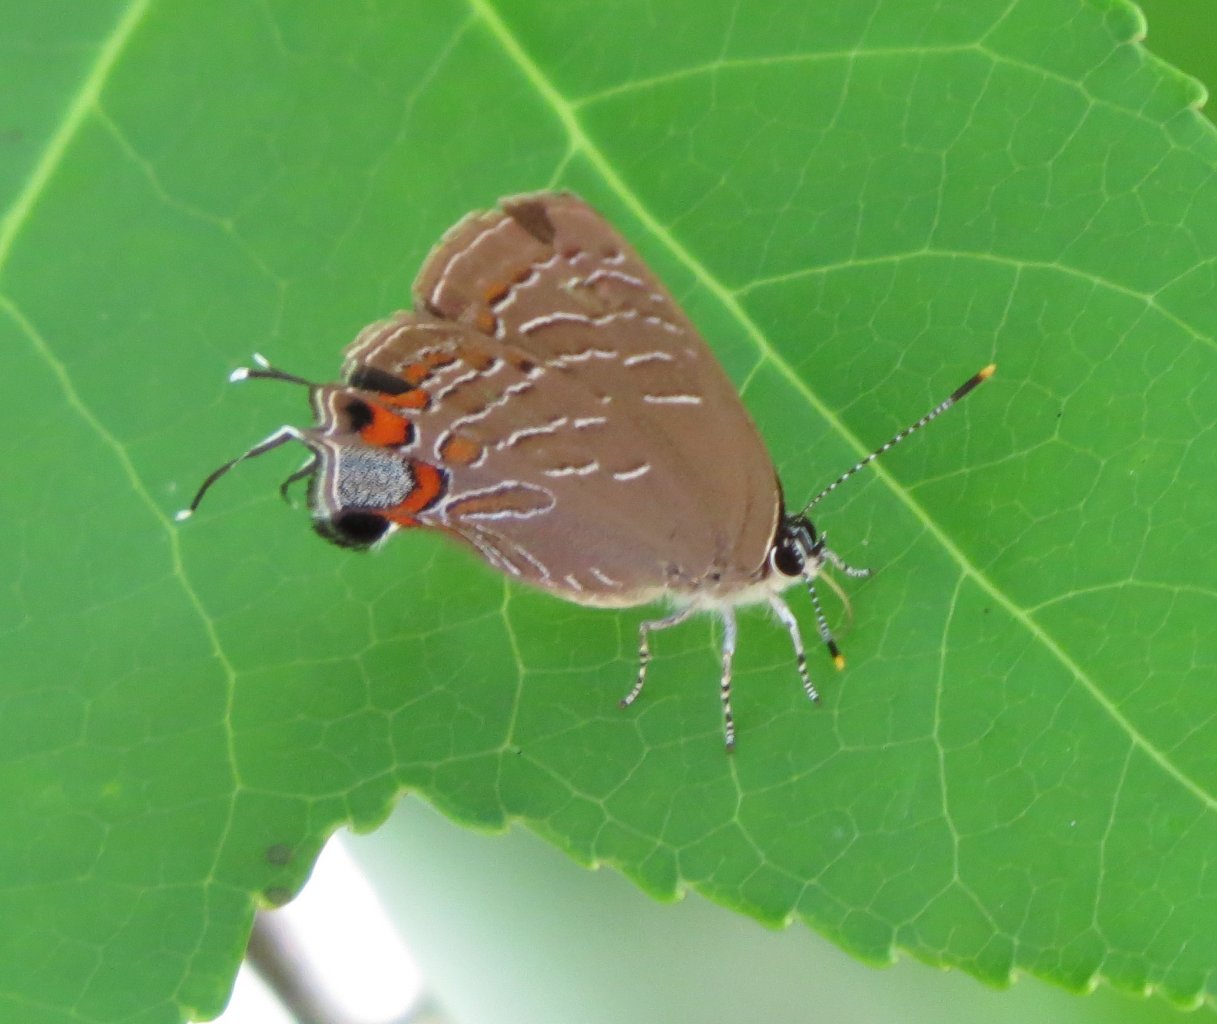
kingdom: Animalia
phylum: Arthropoda
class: Insecta
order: Lepidoptera
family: Lycaenidae
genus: Satyrium
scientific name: Satyrium liparops
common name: Striped Hairstreak
